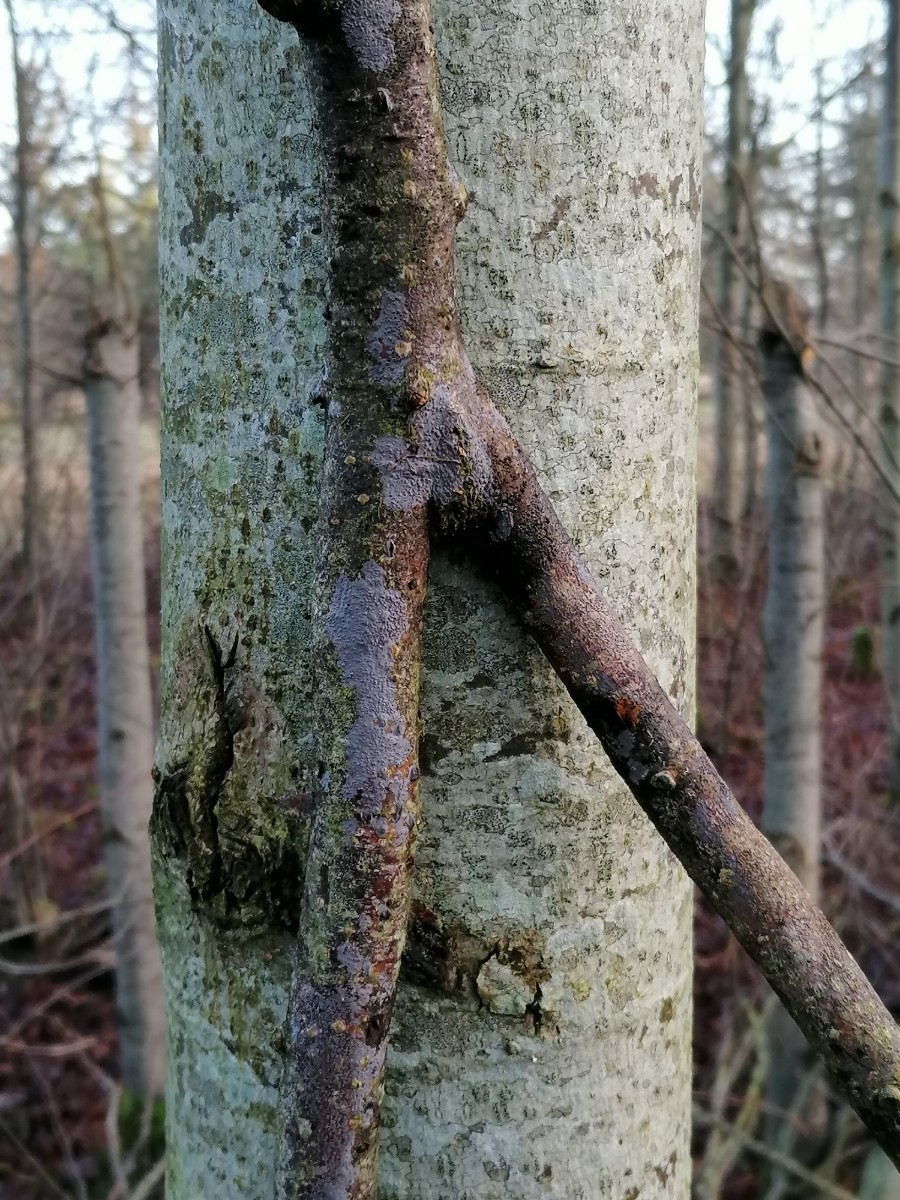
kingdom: Fungi
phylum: Basidiomycota
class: Agaricomycetes
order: Russulales
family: Peniophoraceae
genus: Peniophora
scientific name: Peniophora lycii
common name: grynet voksskind
